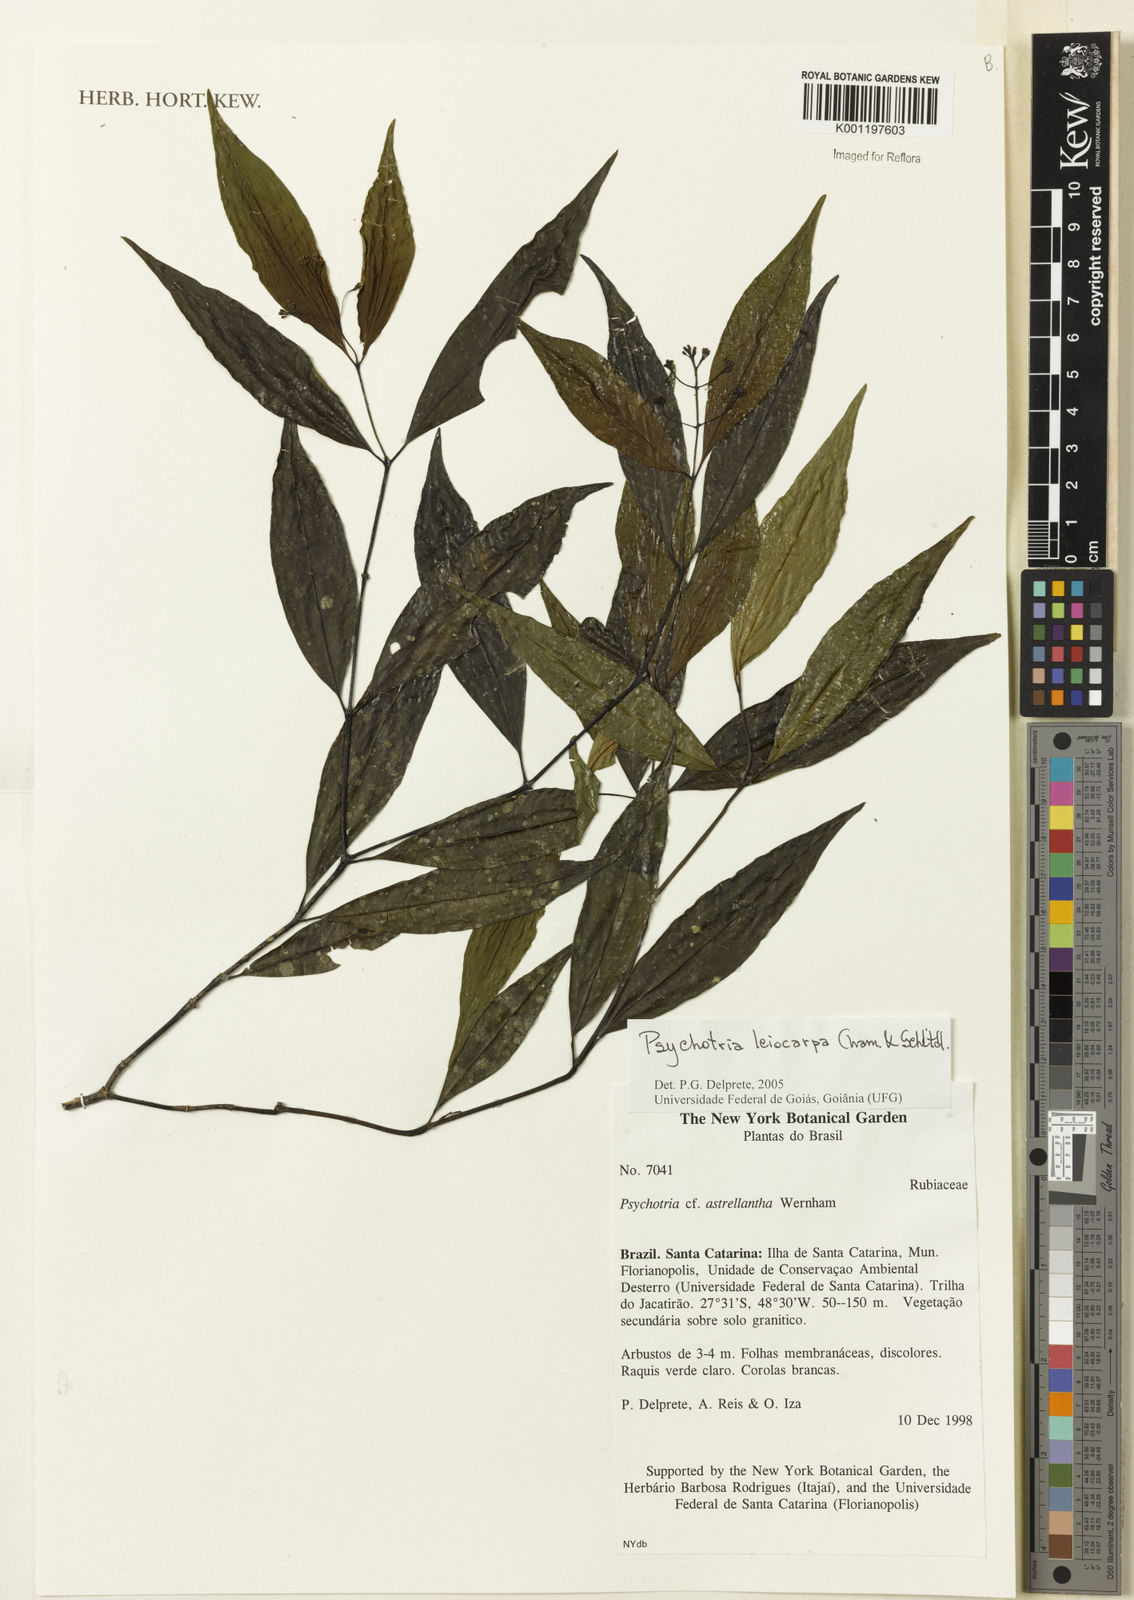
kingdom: Plantae
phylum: Tracheophyta
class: Magnoliopsida
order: Gentianales
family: Rubiaceae
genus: Psychotria
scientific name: Psychotria leiocarpa
